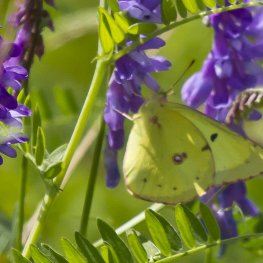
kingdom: Animalia
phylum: Arthropoda
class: Insecta
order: Lepidoptera
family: Pieridae
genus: Colias
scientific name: Colias philodice
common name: Clouded Sulphur
